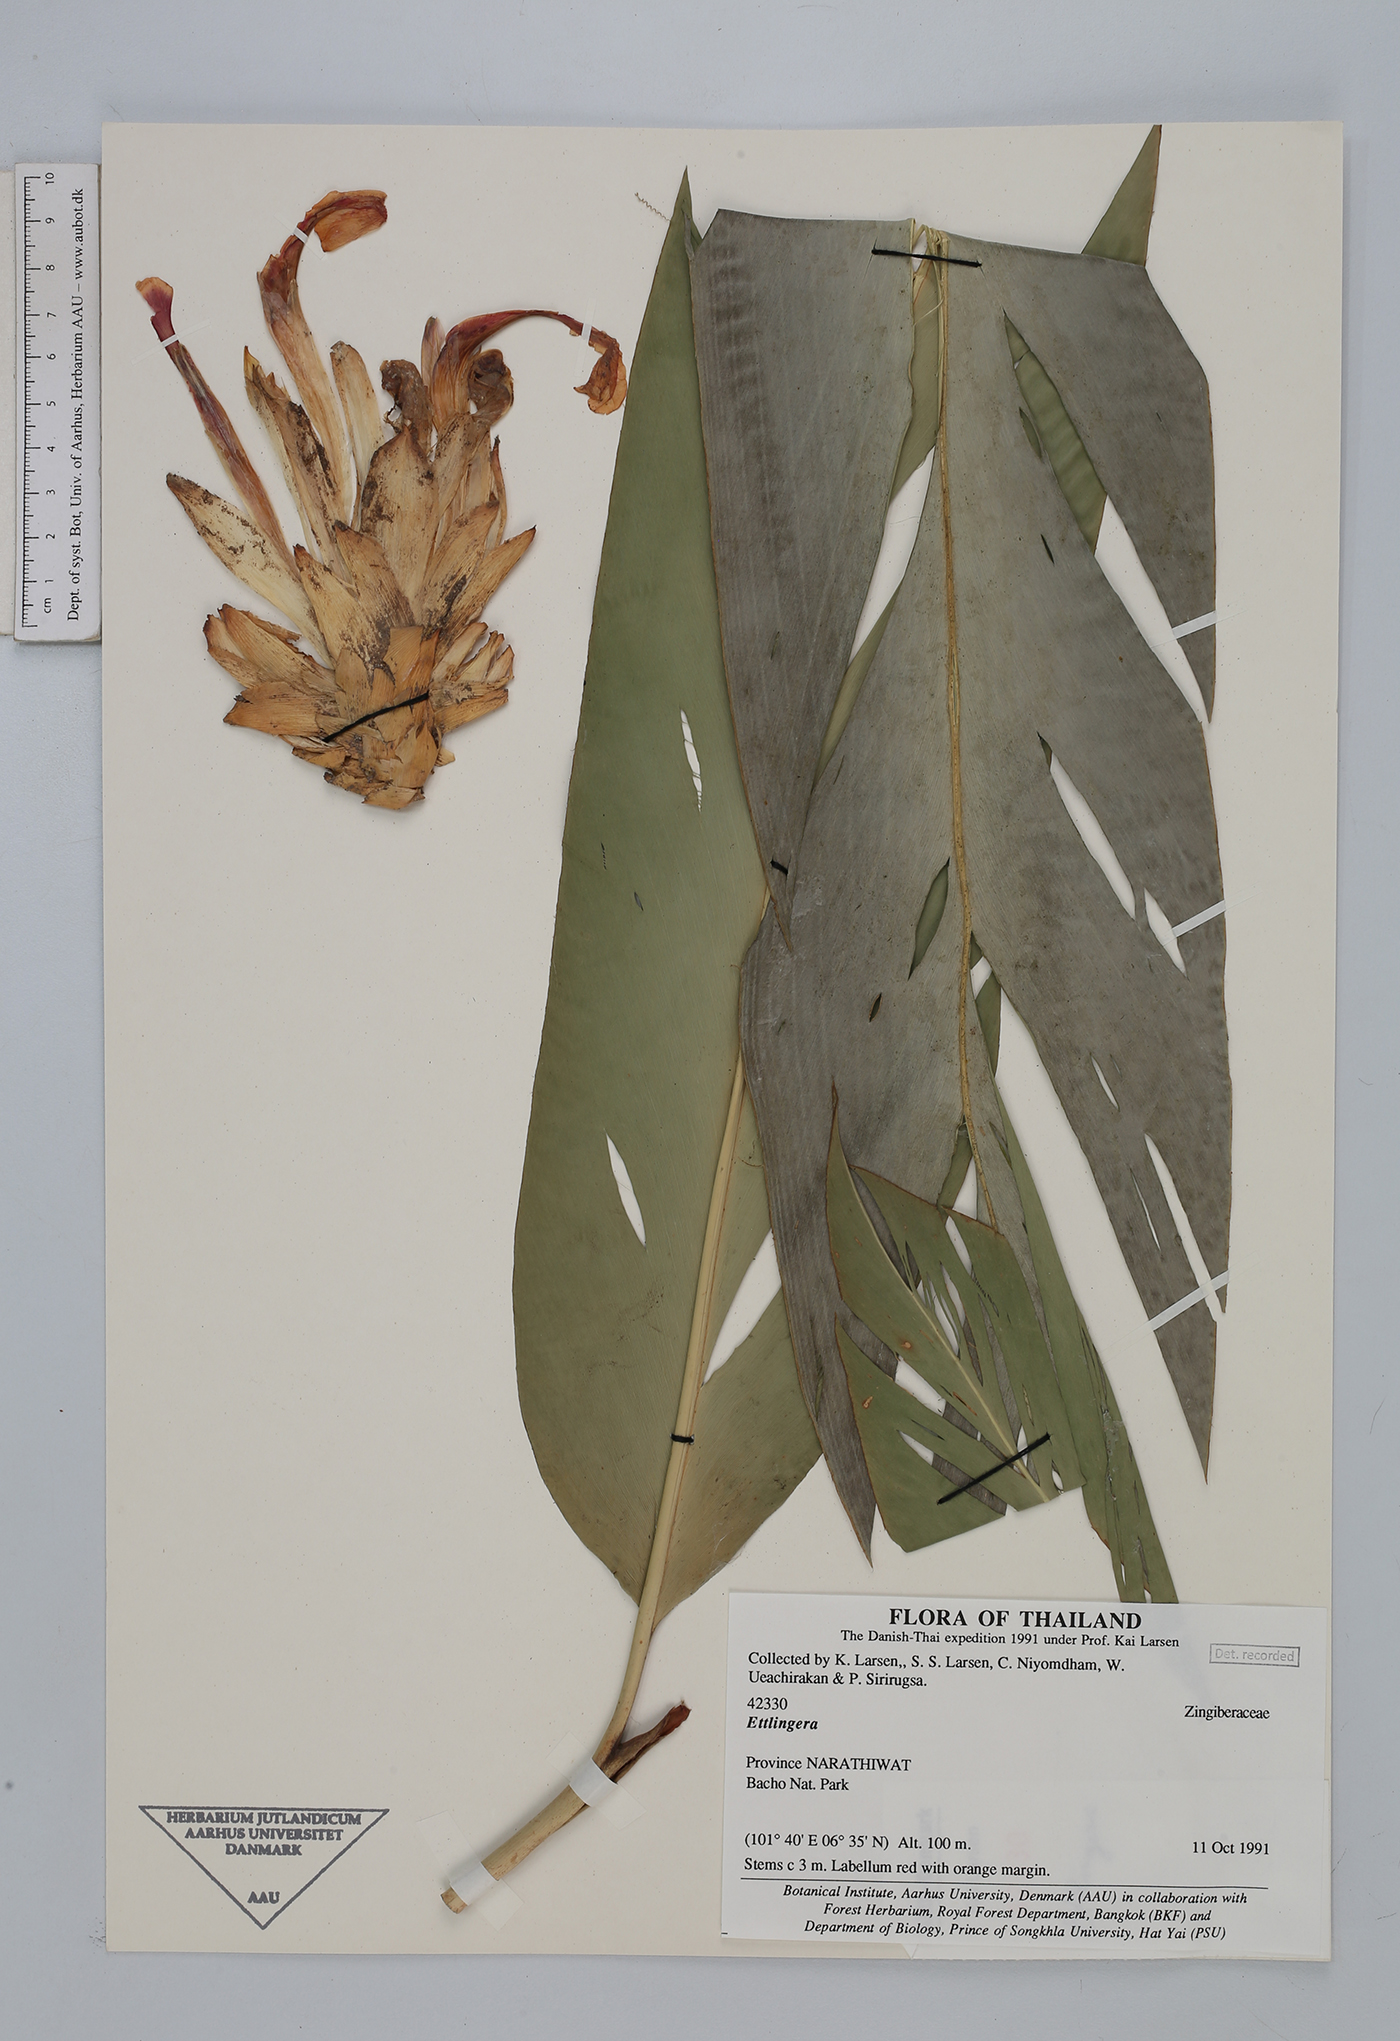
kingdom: Plantae
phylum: Tracheophyta
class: Liliopsida
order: Zingiberales
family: Zingiberaceae
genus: Ettlingera
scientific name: Ettlingera
